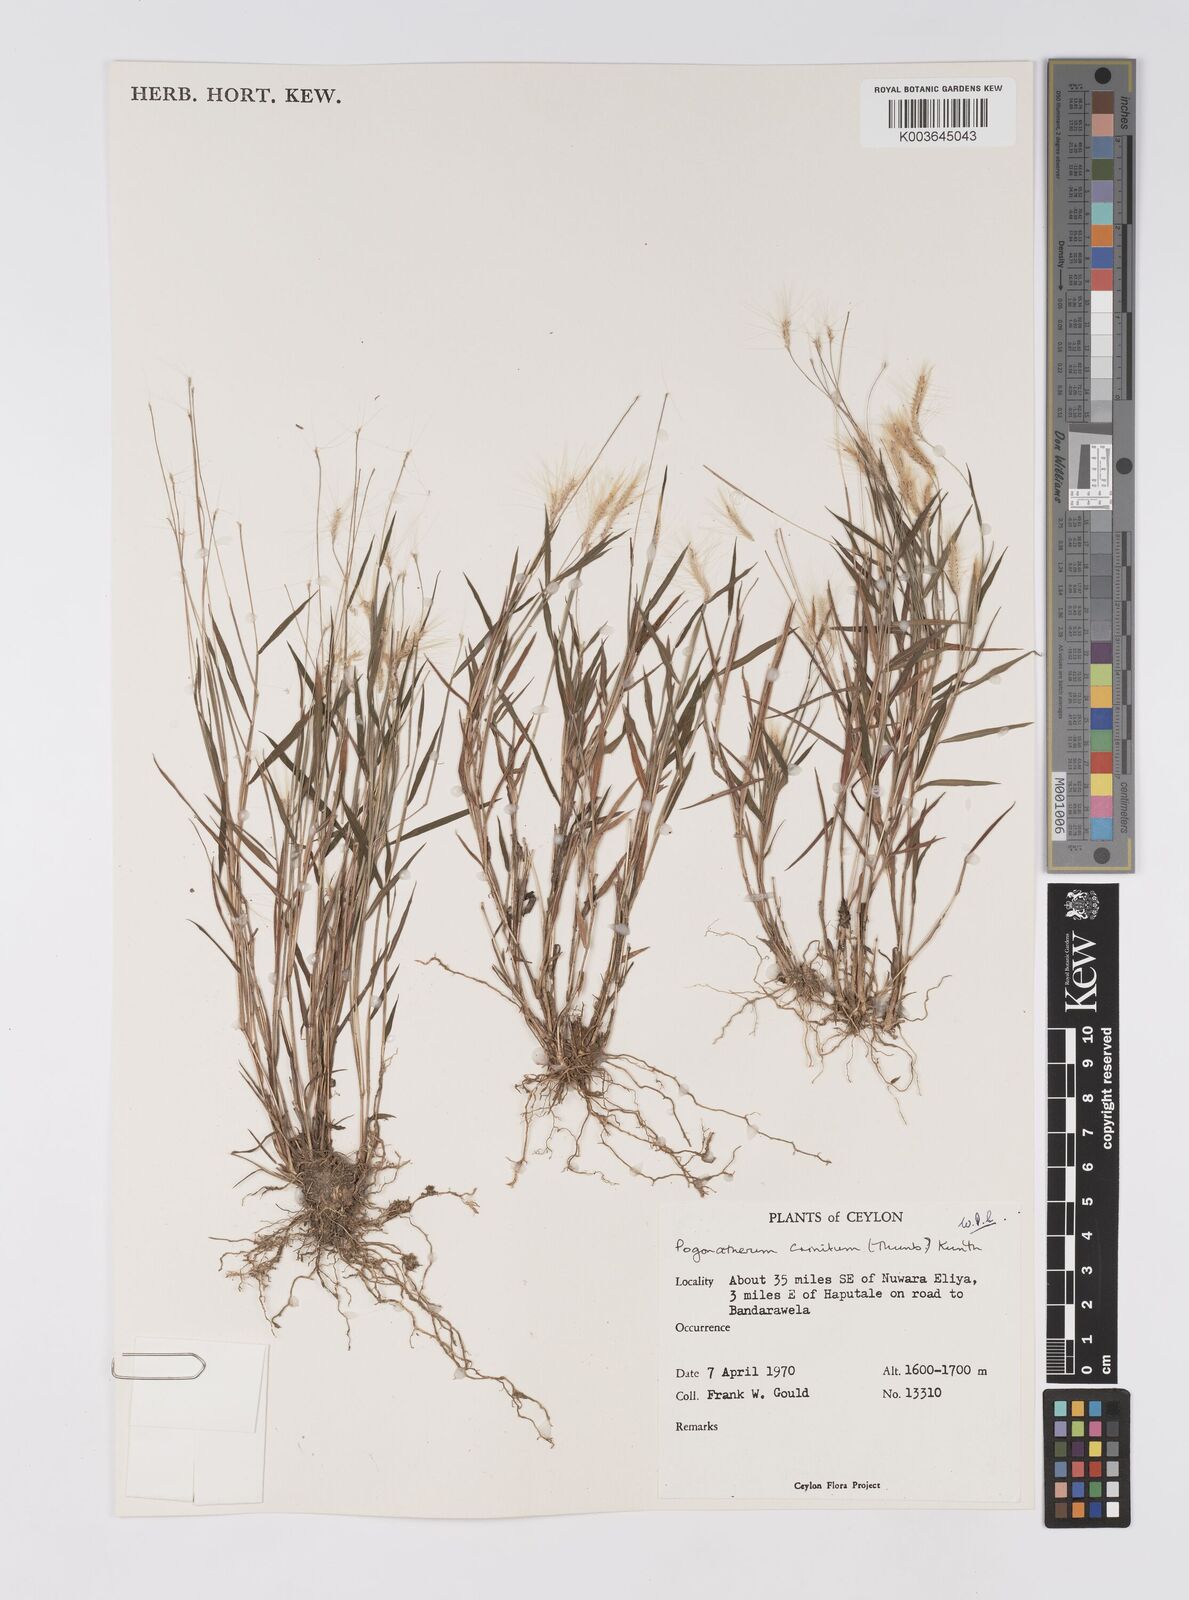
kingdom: Plantae
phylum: Tracheophyta
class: Liliopsida
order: Poales
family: Poaceae
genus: Pogonatherum
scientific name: Pogonatherum crinitum
